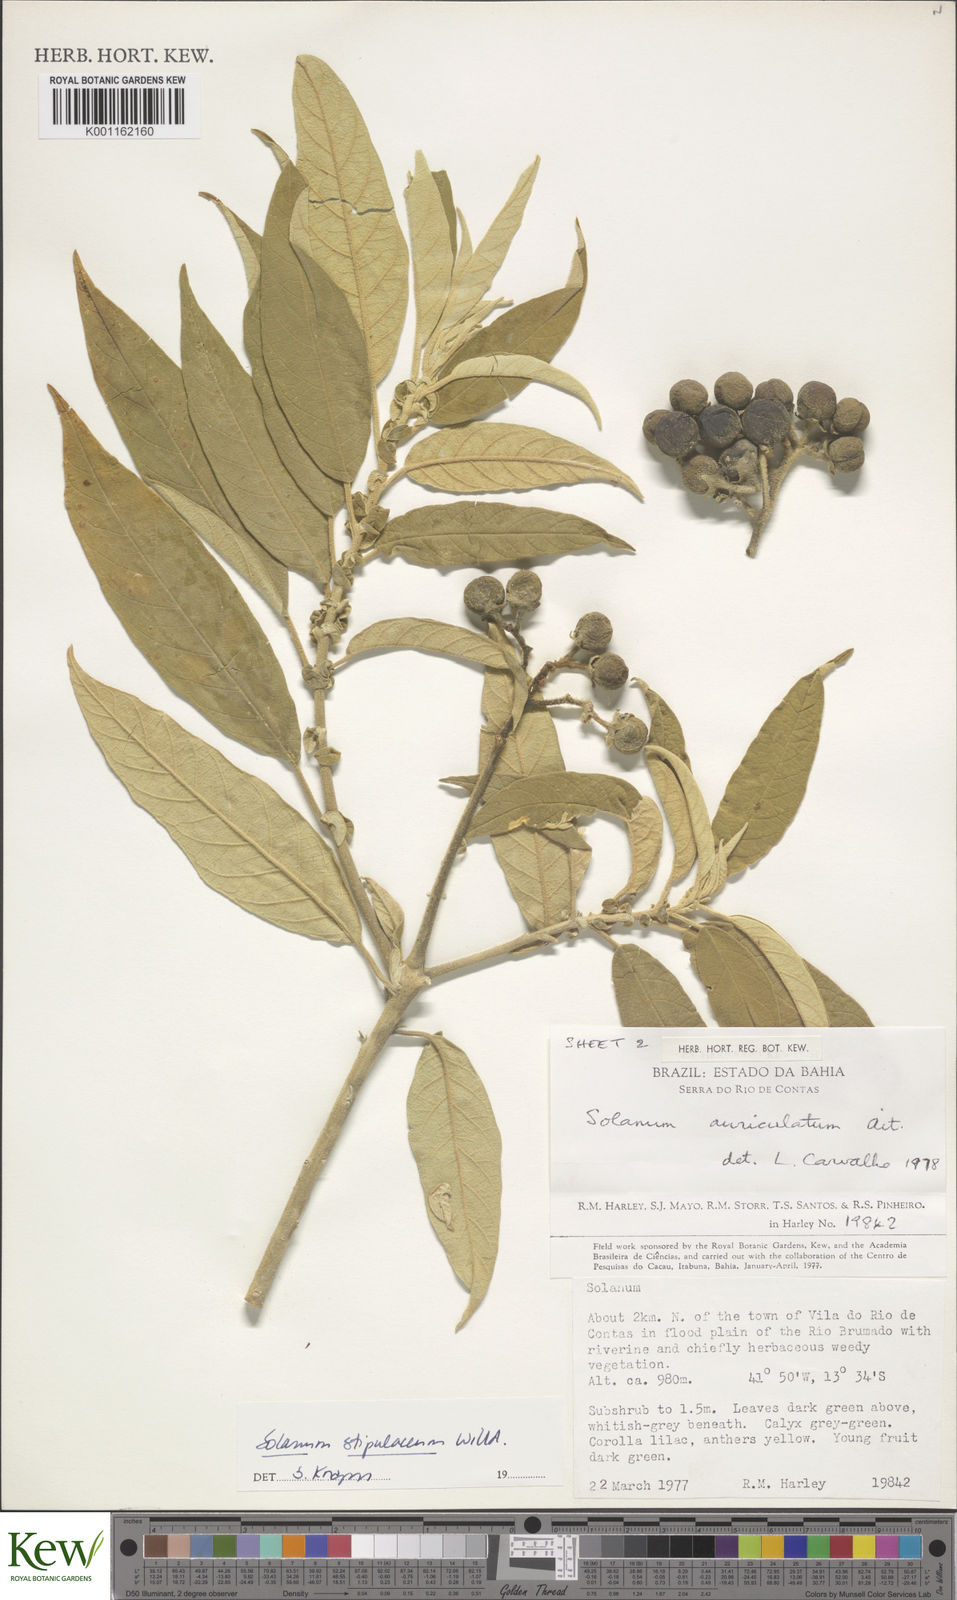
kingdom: Plantae
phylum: Tracheophyta
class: Magnoliopsida
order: Solanales
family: Solanaceae
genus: Solanum
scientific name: Solanum stipulaceum
